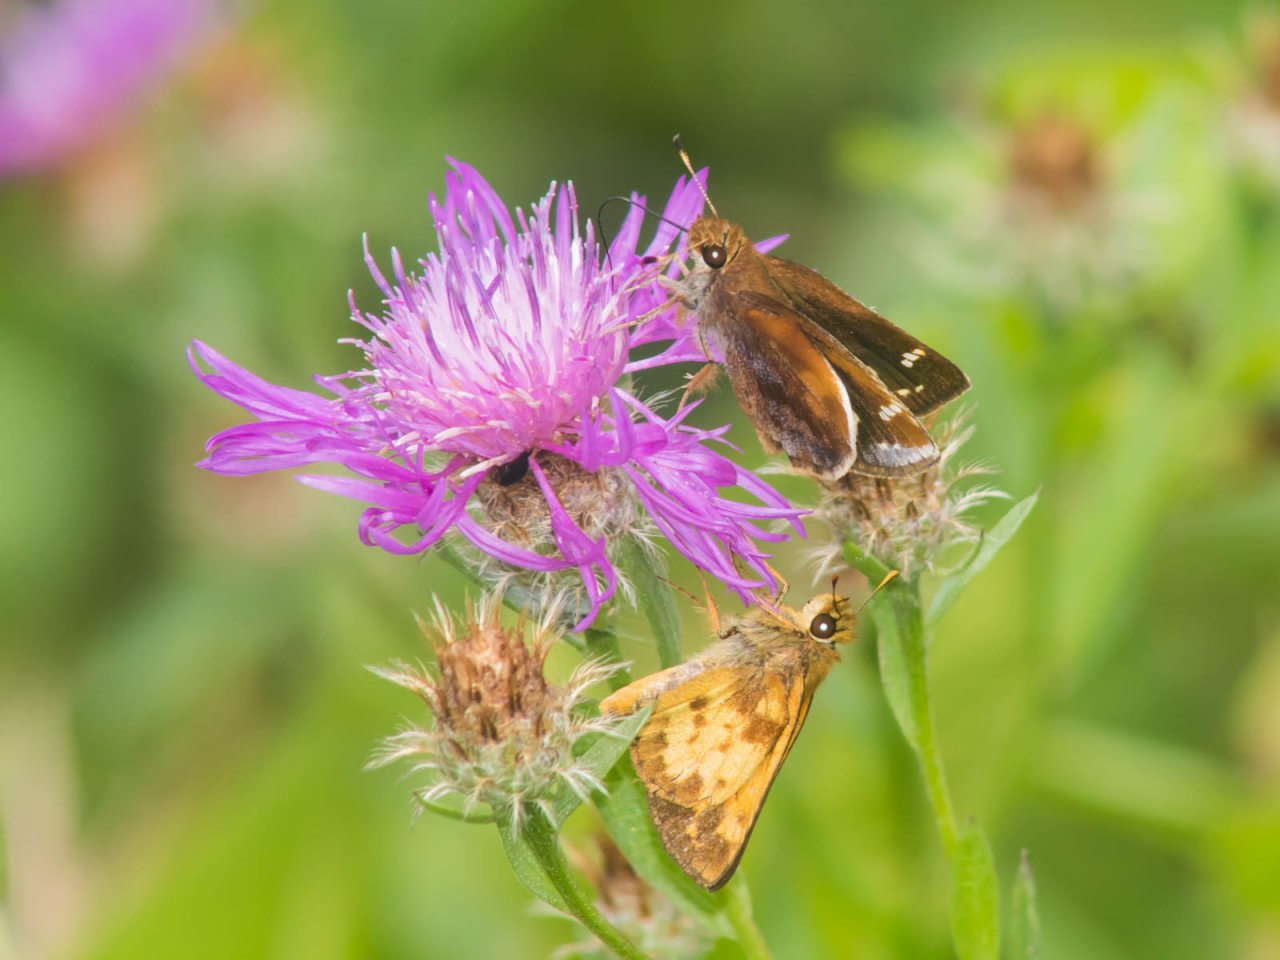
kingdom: Animalia
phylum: Arthropoda
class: Insecta
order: Lepidoptera
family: Hesperiidae
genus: Lon
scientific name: Lon zabulon
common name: Zabulon Skipper
